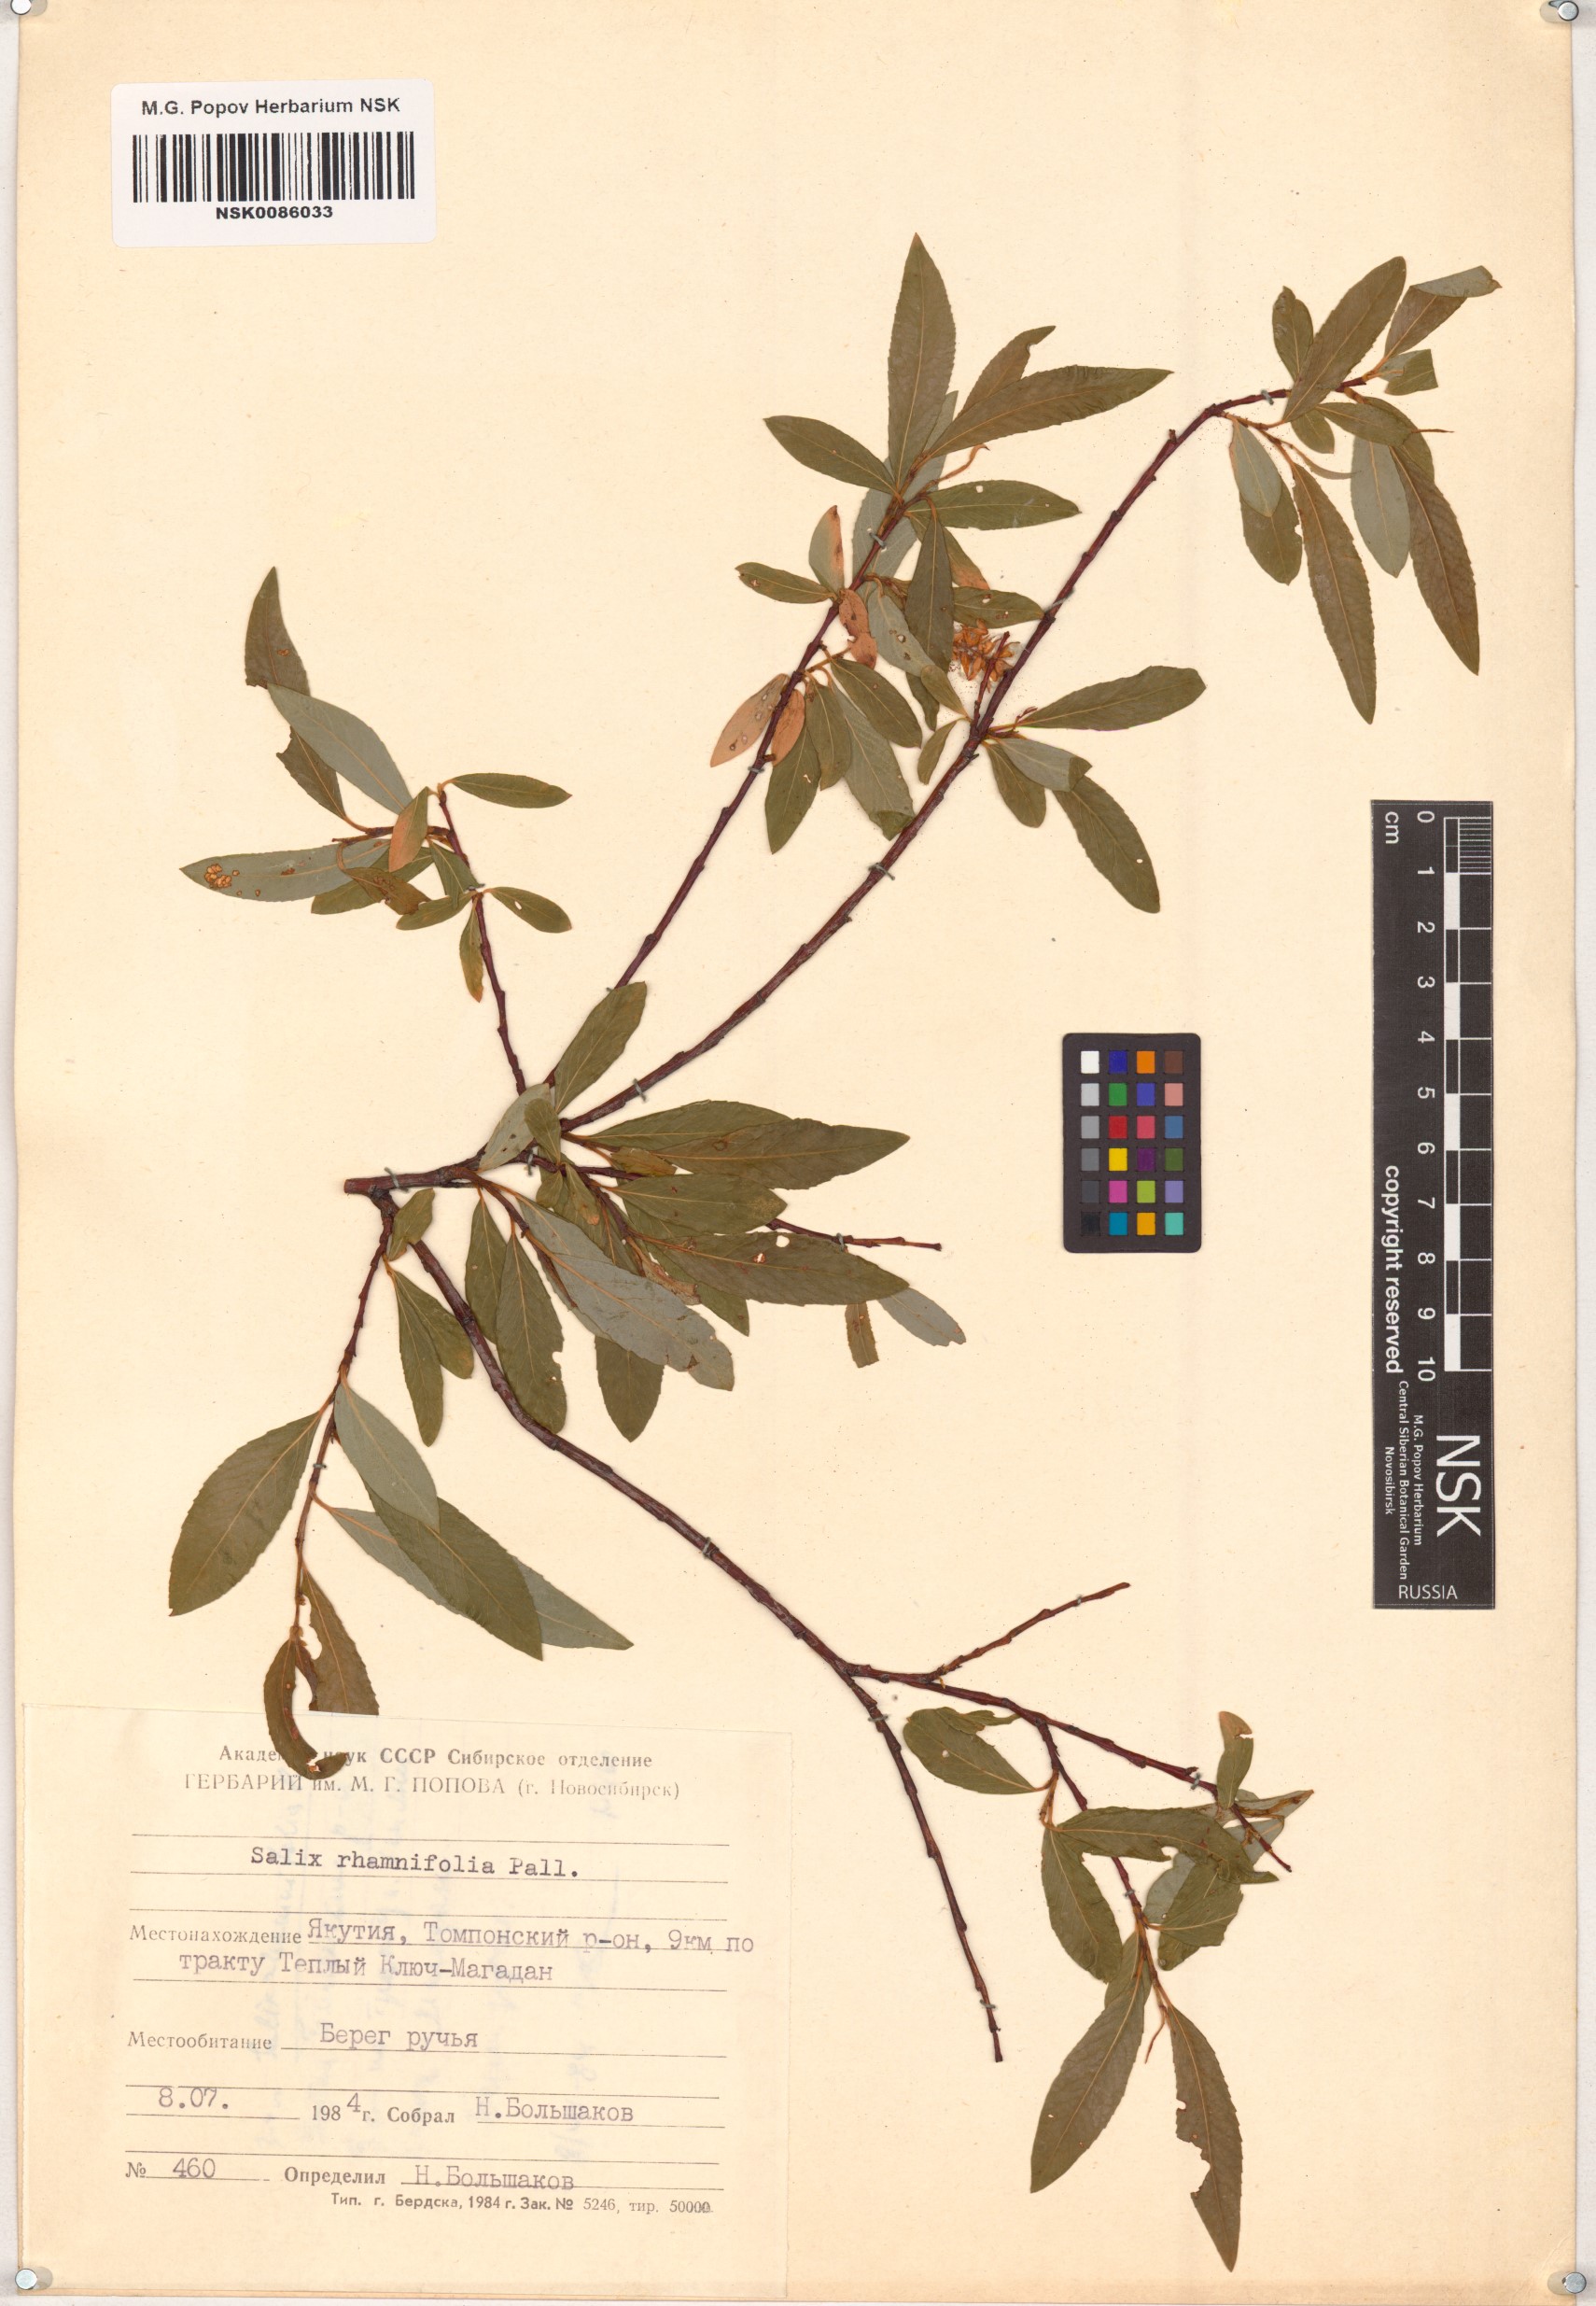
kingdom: Plantae
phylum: Tracheophyta
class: Magnoliopsida
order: Malpighiales
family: Salicaceae
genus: Salix
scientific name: Salix rhamnifolia
